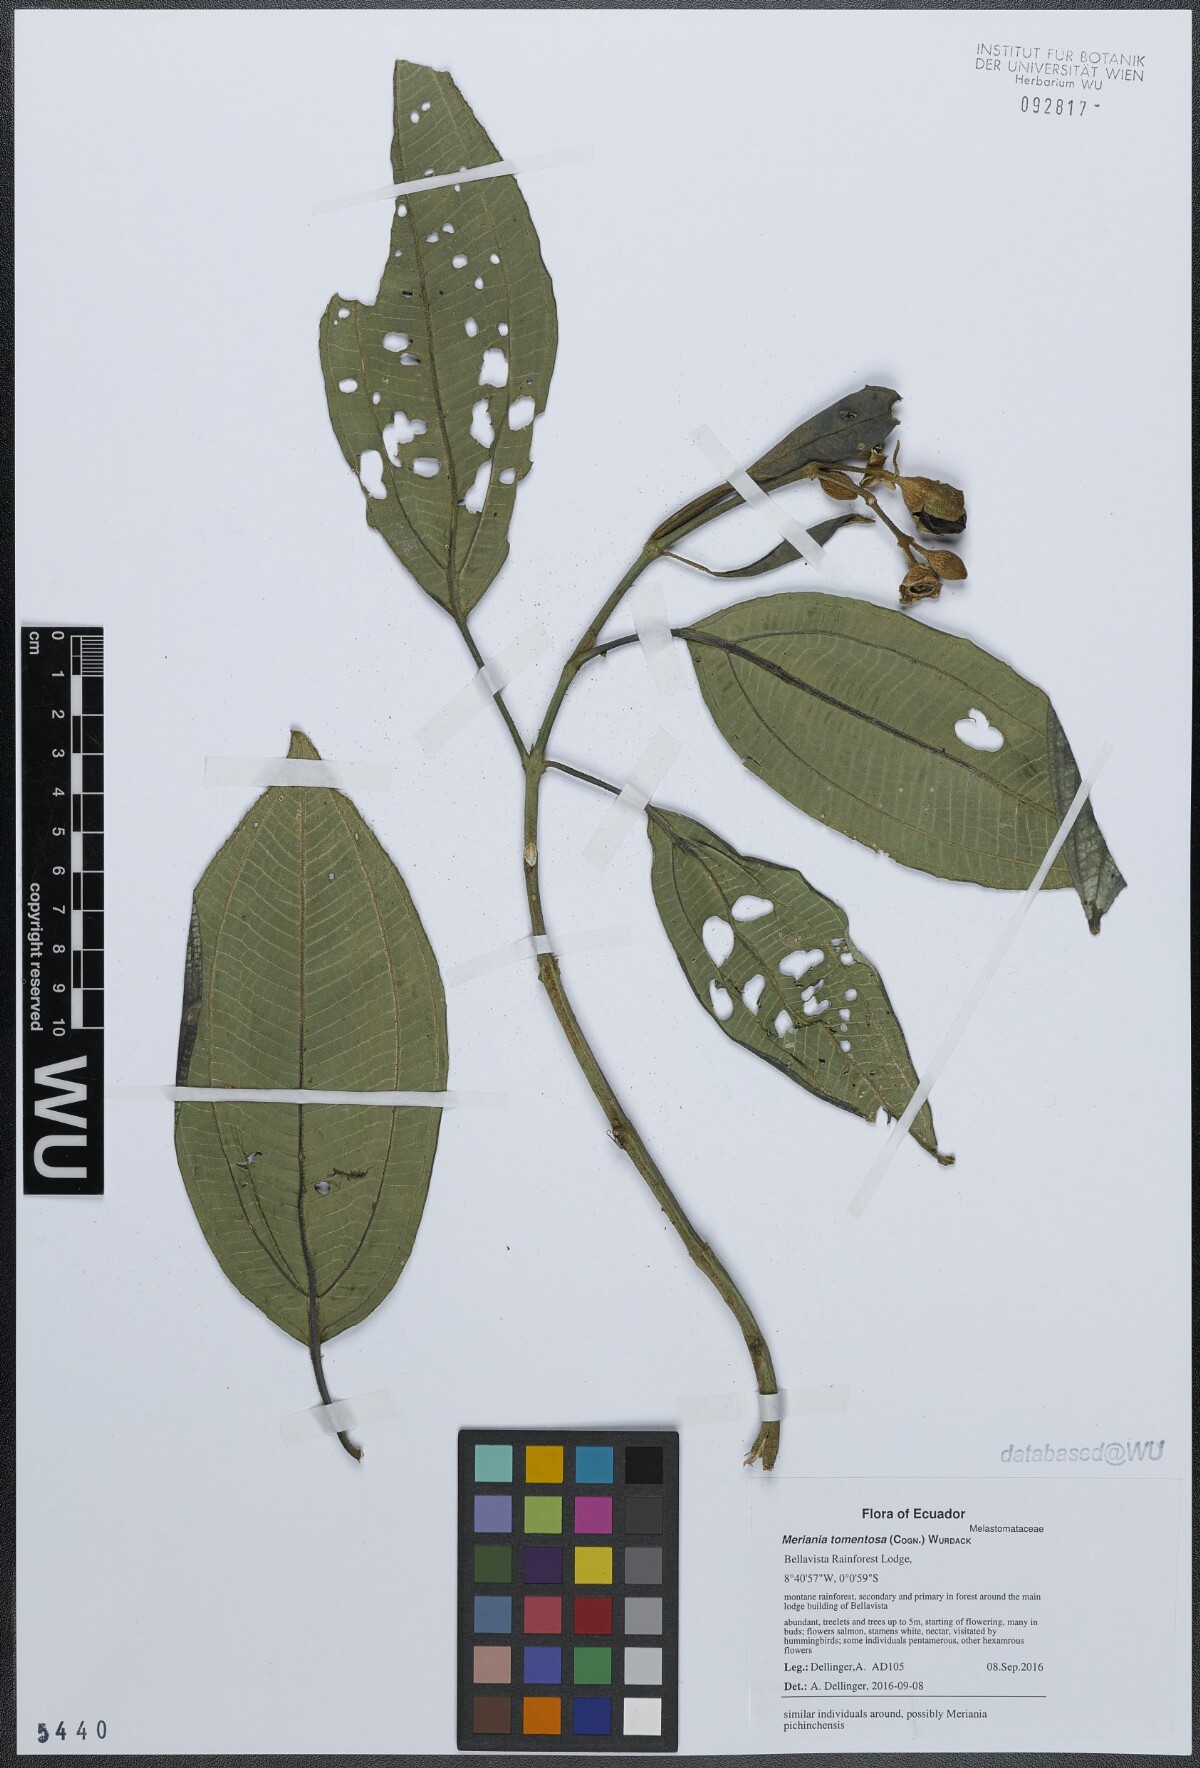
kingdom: Plantae
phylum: Tracheophyta
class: Magnoliopsida
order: Myrtales
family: Melastomataceae
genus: Meriania
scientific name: Meriania tomentosa
